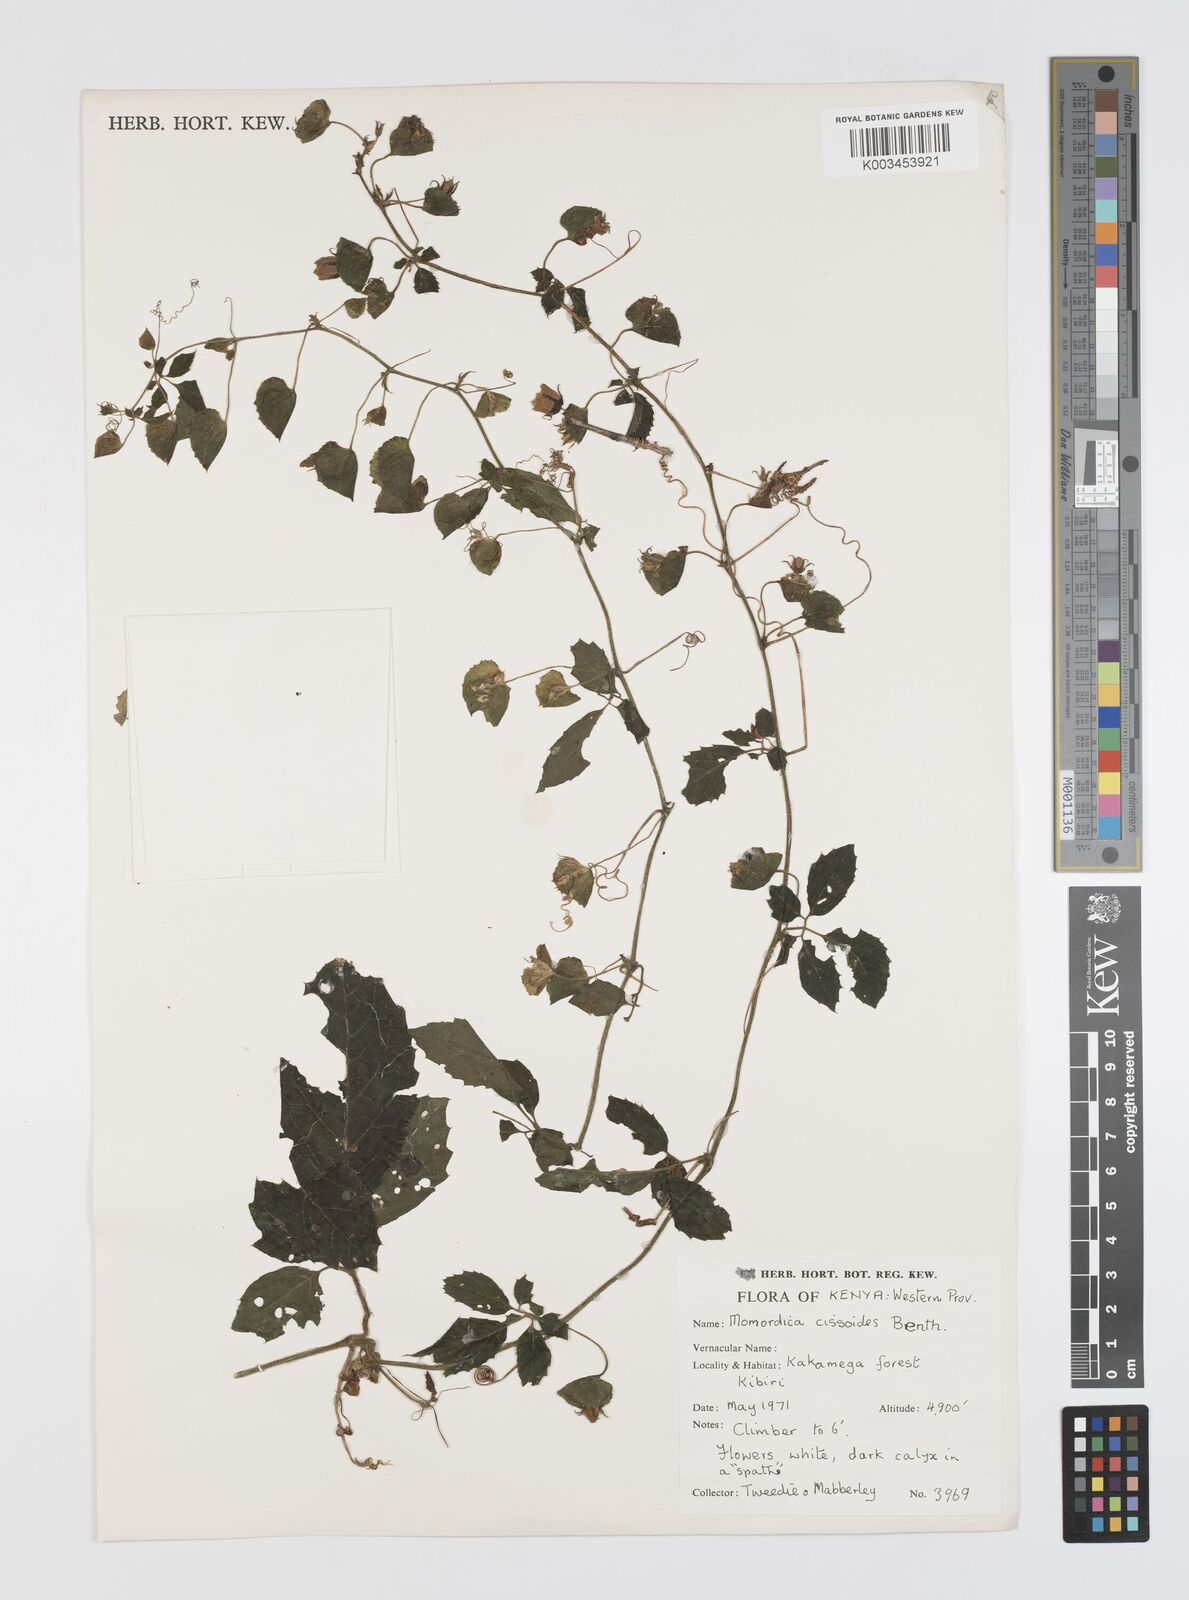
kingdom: Plantae
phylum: Tracheophyta
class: Magnoliopsida
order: Cucurbitales
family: Cucurbitaceae
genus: Momordica
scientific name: Momordica cissoides
